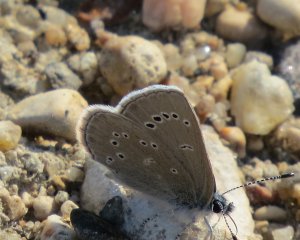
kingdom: Animalia
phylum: Arthropoda
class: Insecta
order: Lepidoptera
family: Lycaenidae
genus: Glaucopsyche
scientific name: Glaucopsyche lygdamus
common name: Silvery Blue
